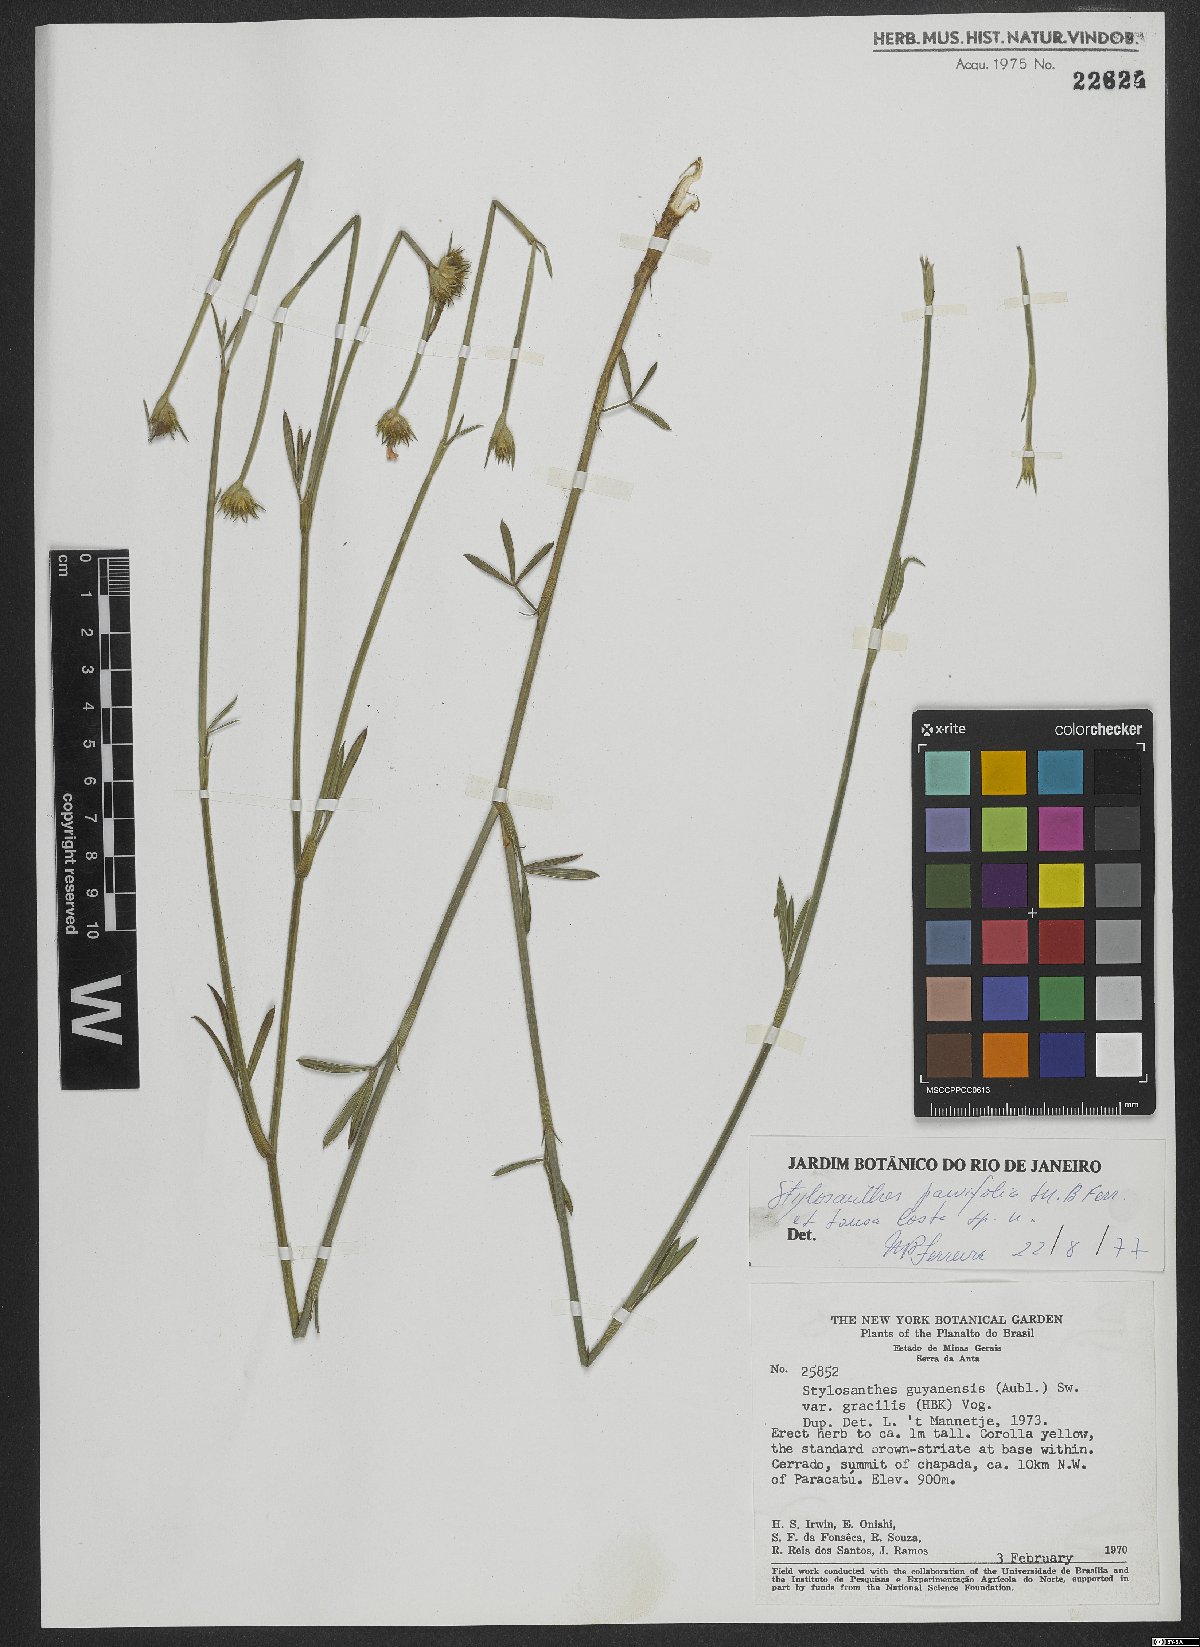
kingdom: Plantae
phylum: Tracheophyta
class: Magnoliopsida
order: Fabales
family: Fabaceae
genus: Stylosanthes
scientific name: Stylosanthes
